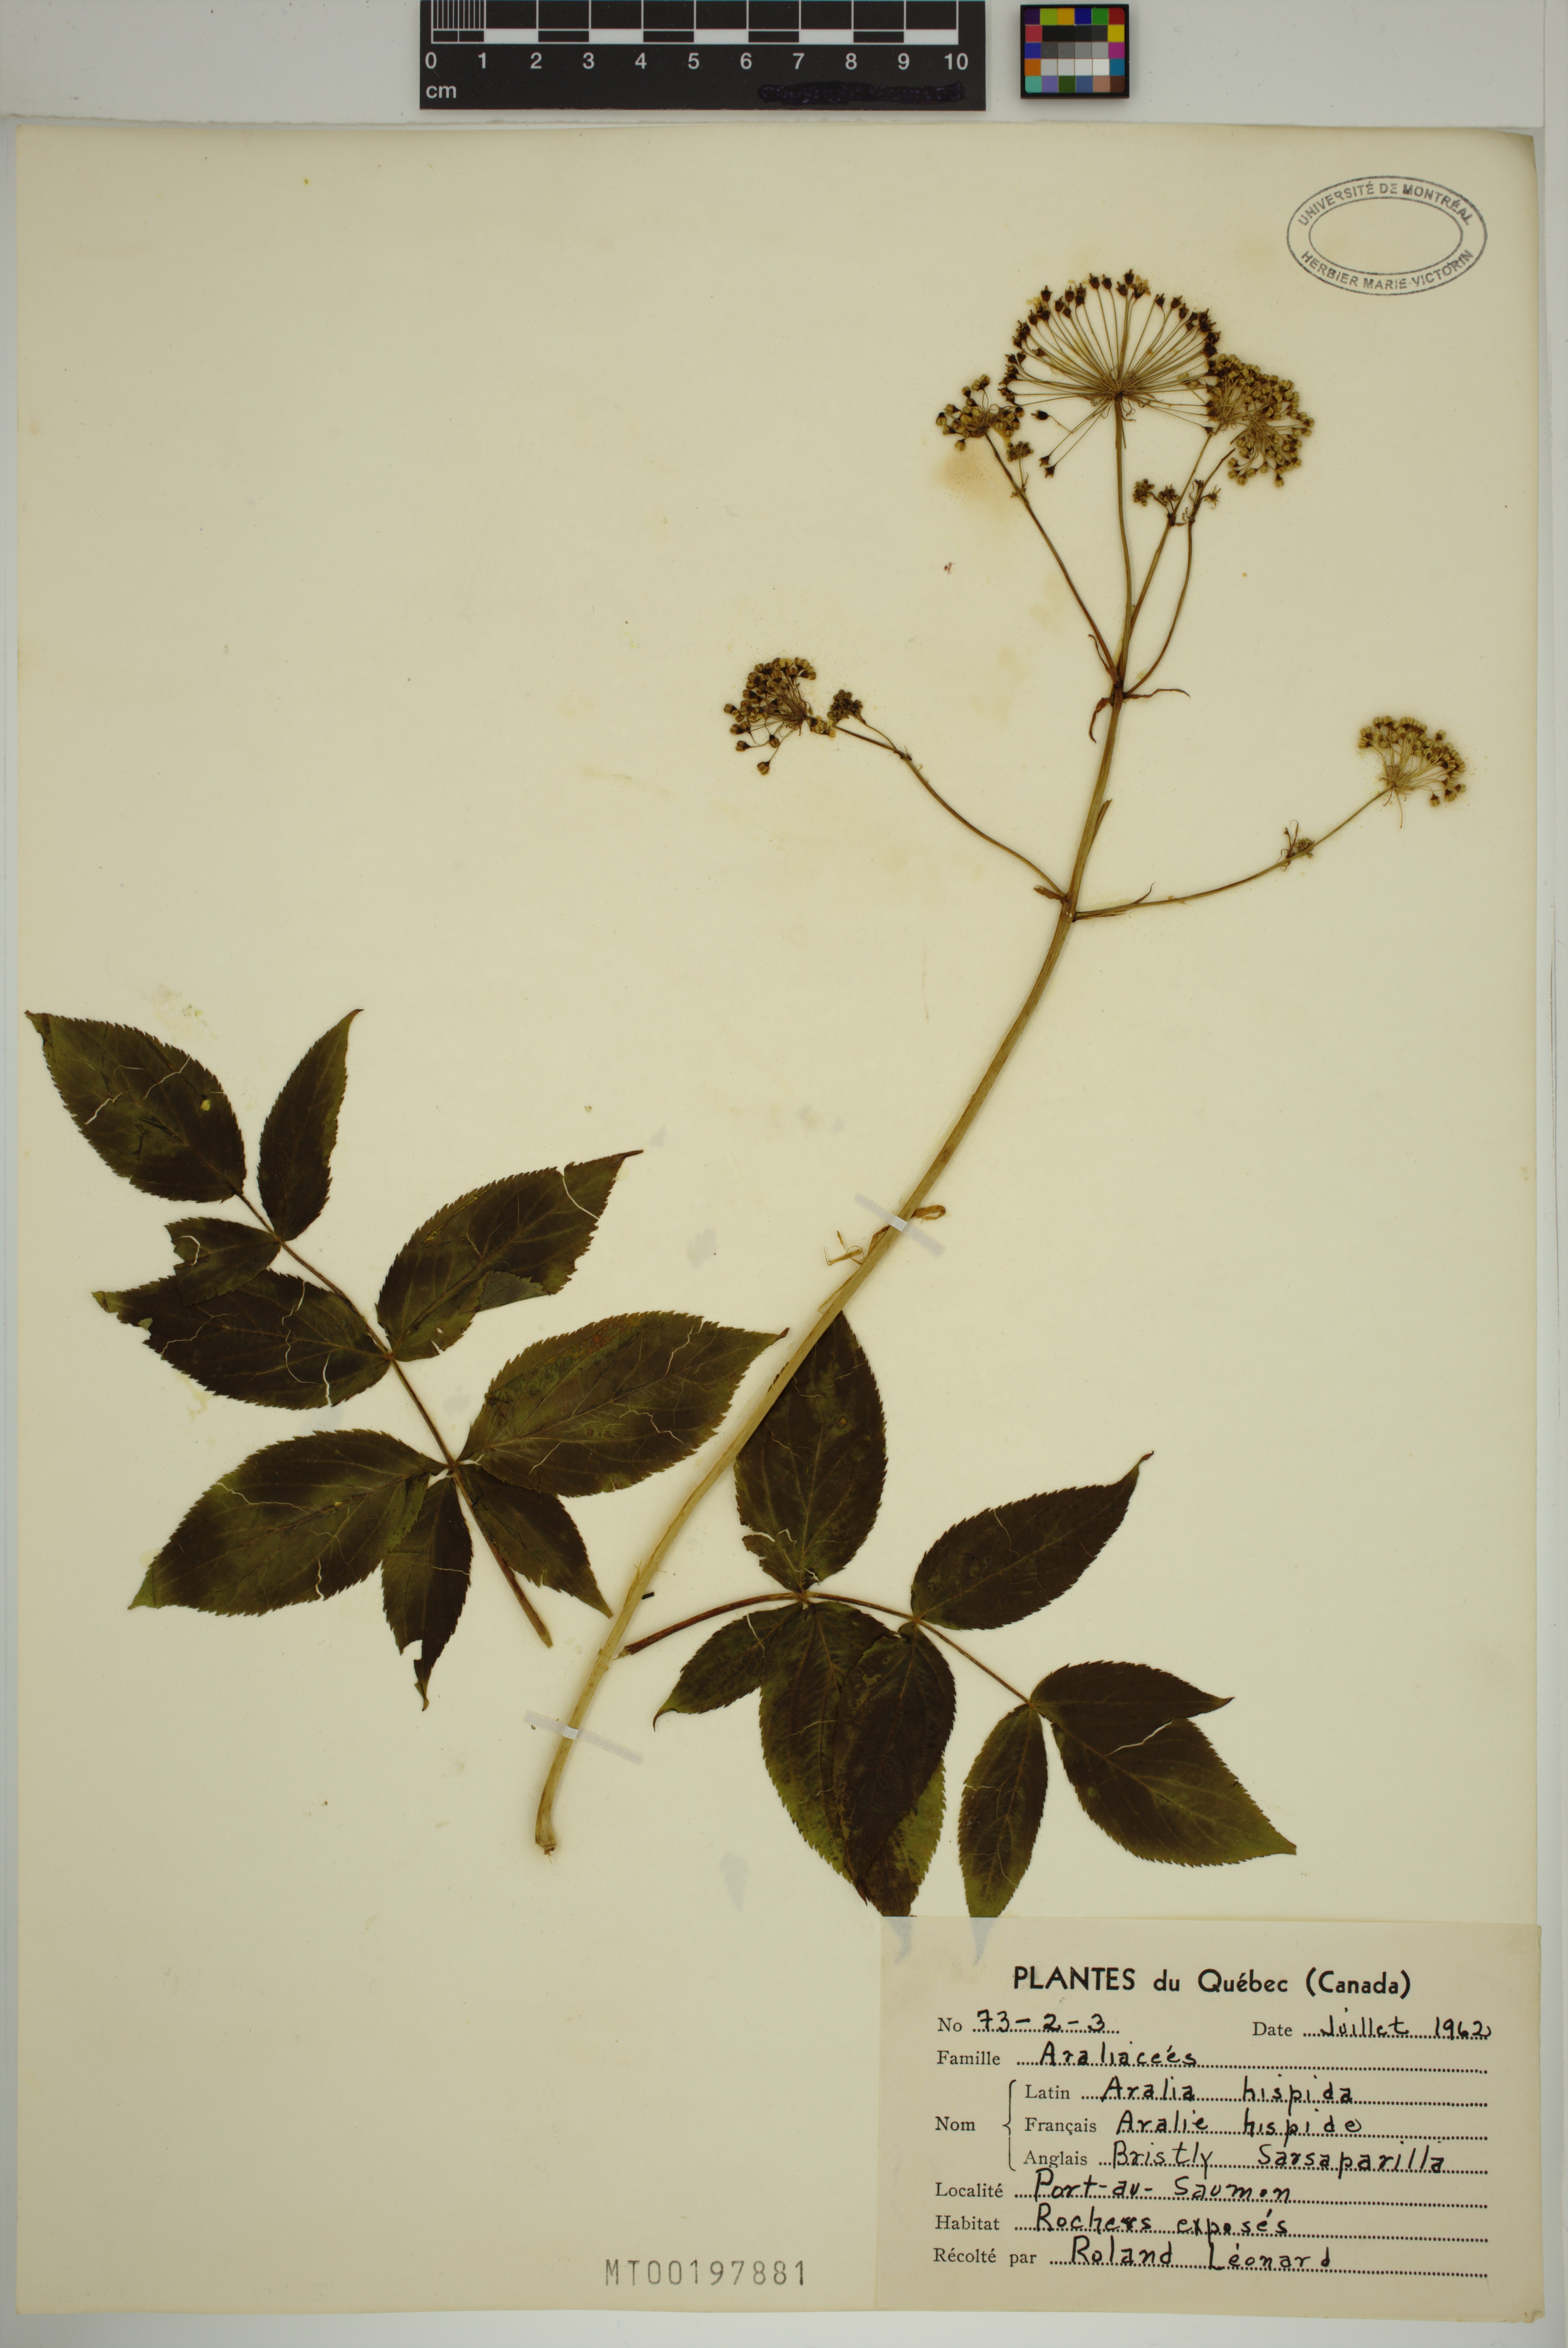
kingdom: Plantae
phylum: Tracheophyta
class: Magnoliopsida
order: Apiales
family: Araliaceae
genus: Aralia
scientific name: Aralia hispida
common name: Bristly sarsaparilla
